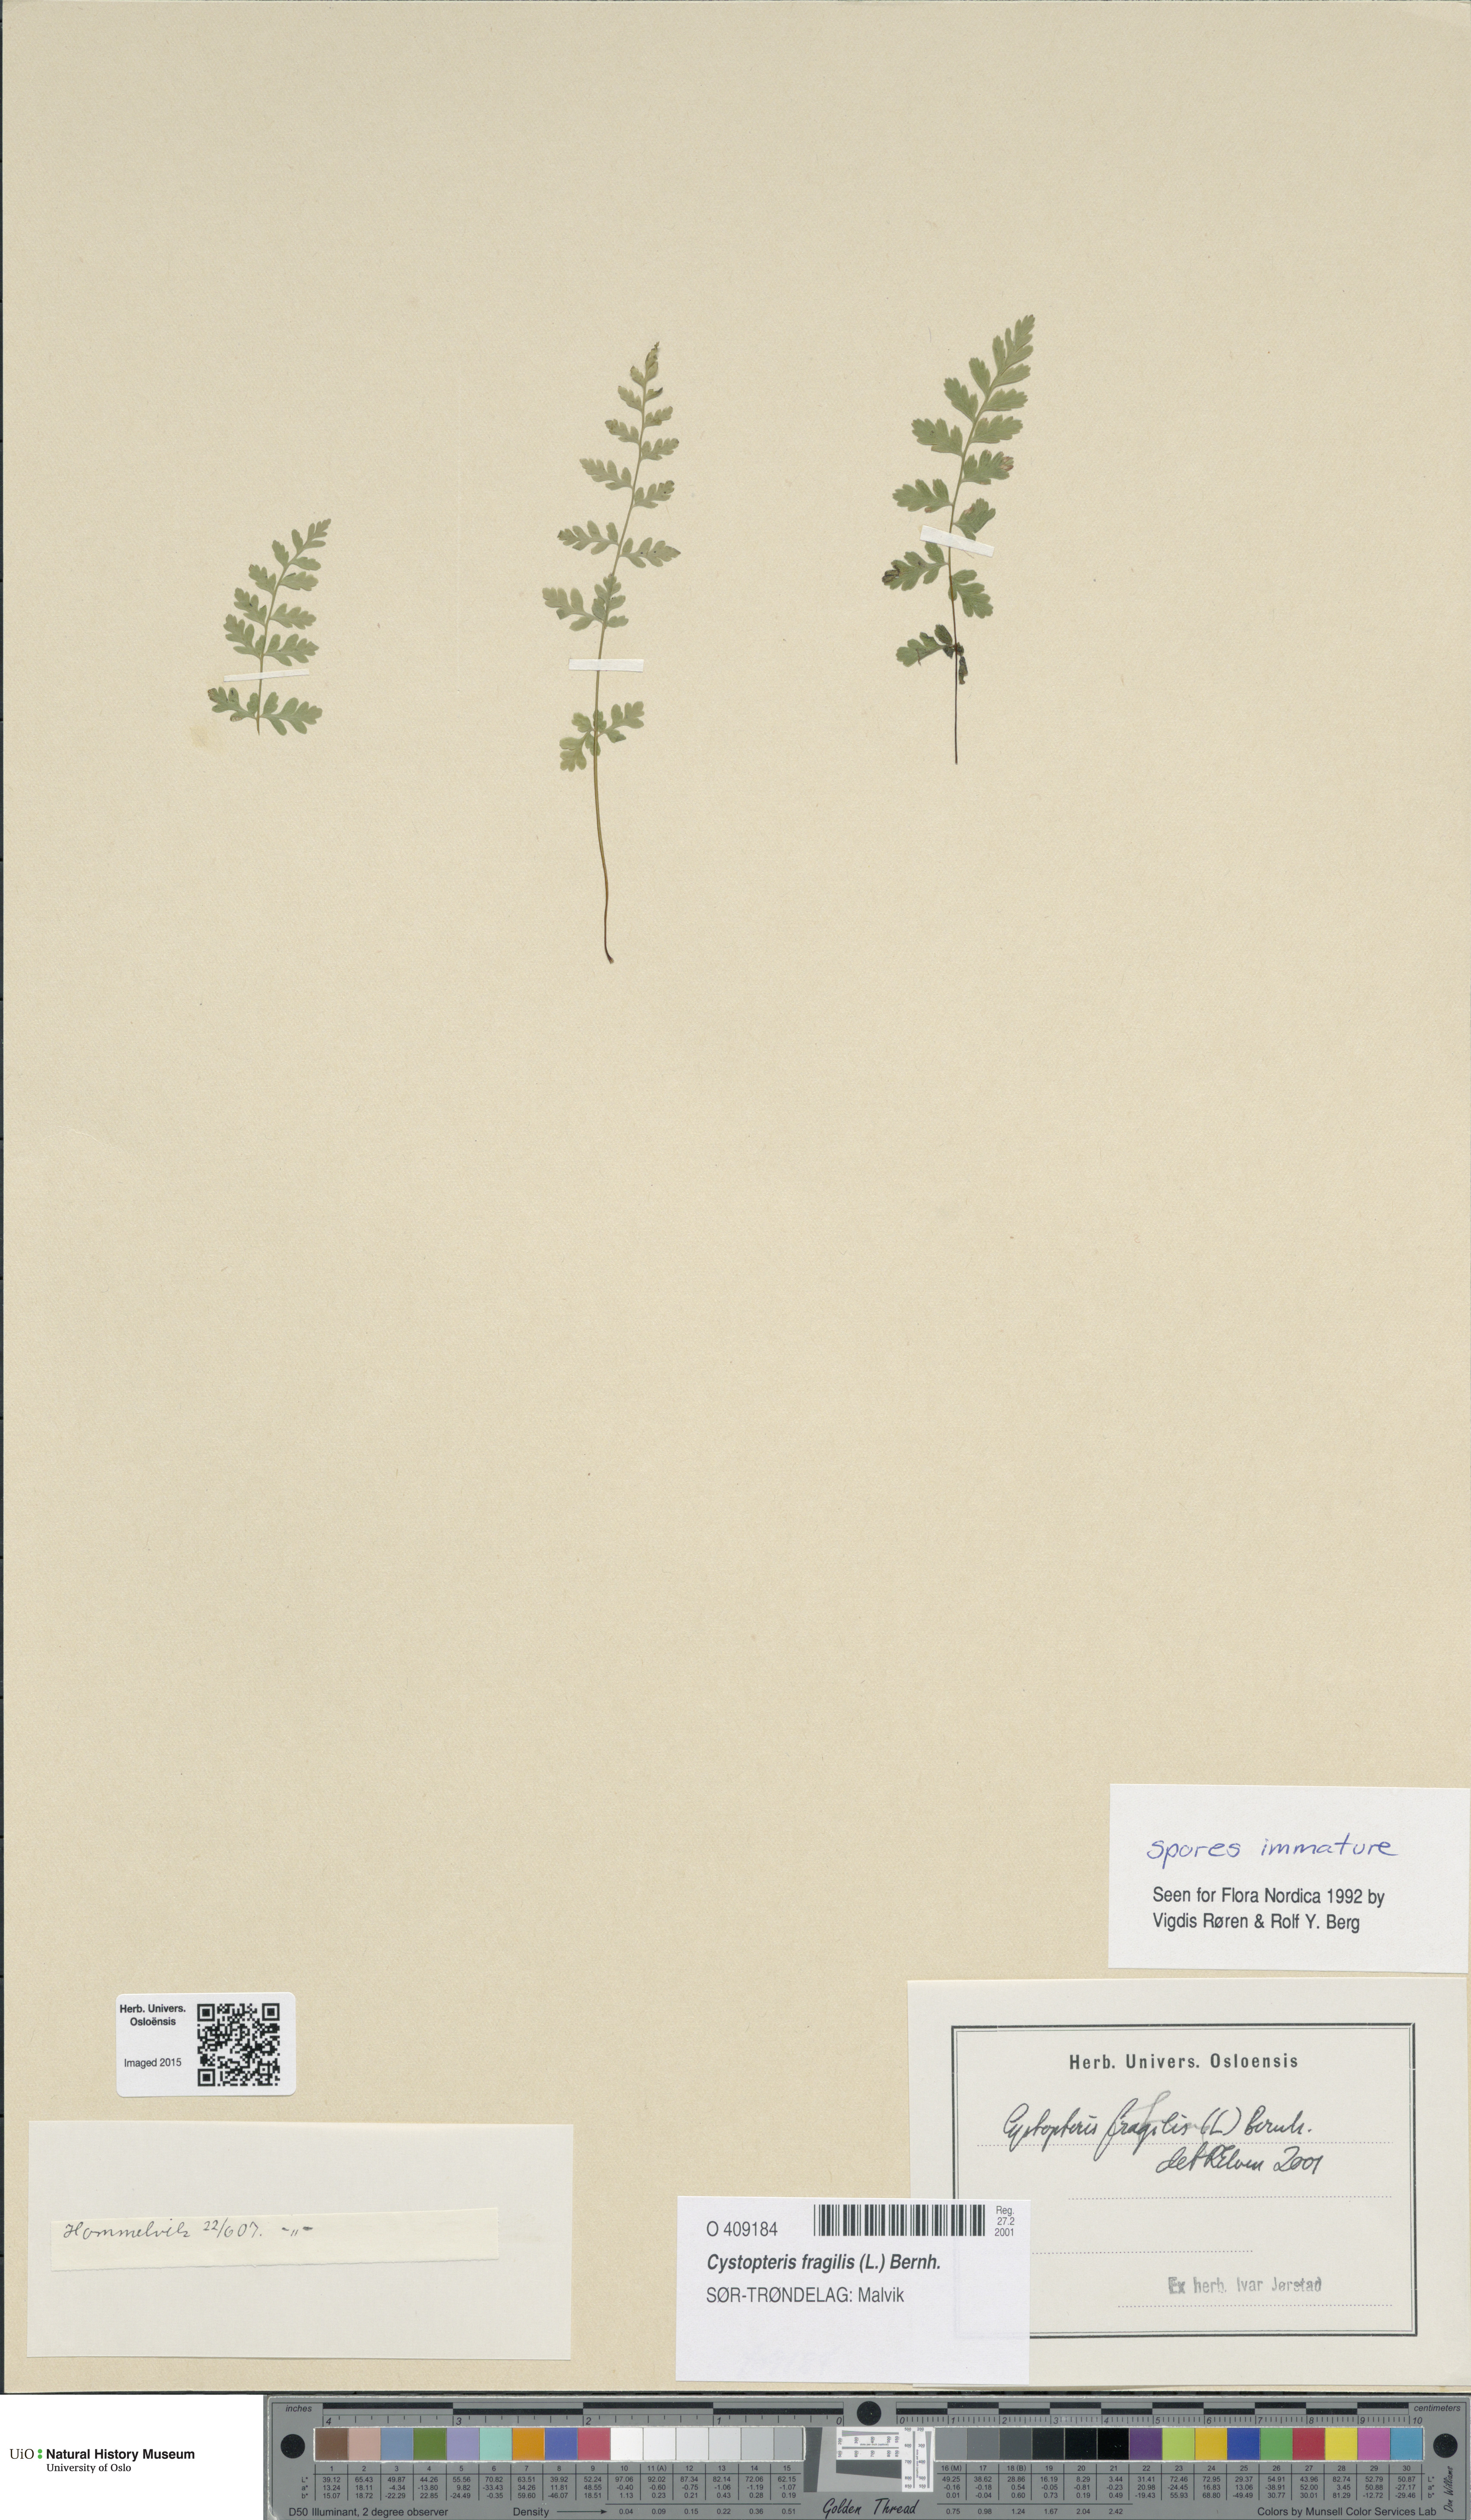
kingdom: Plantae
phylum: Tracheophyta
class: Polypodiopsida
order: Polypodiales
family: Cystopteridaceae
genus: Cystopteris
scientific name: Cystopteris fragilis
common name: Brittle bladder fern
